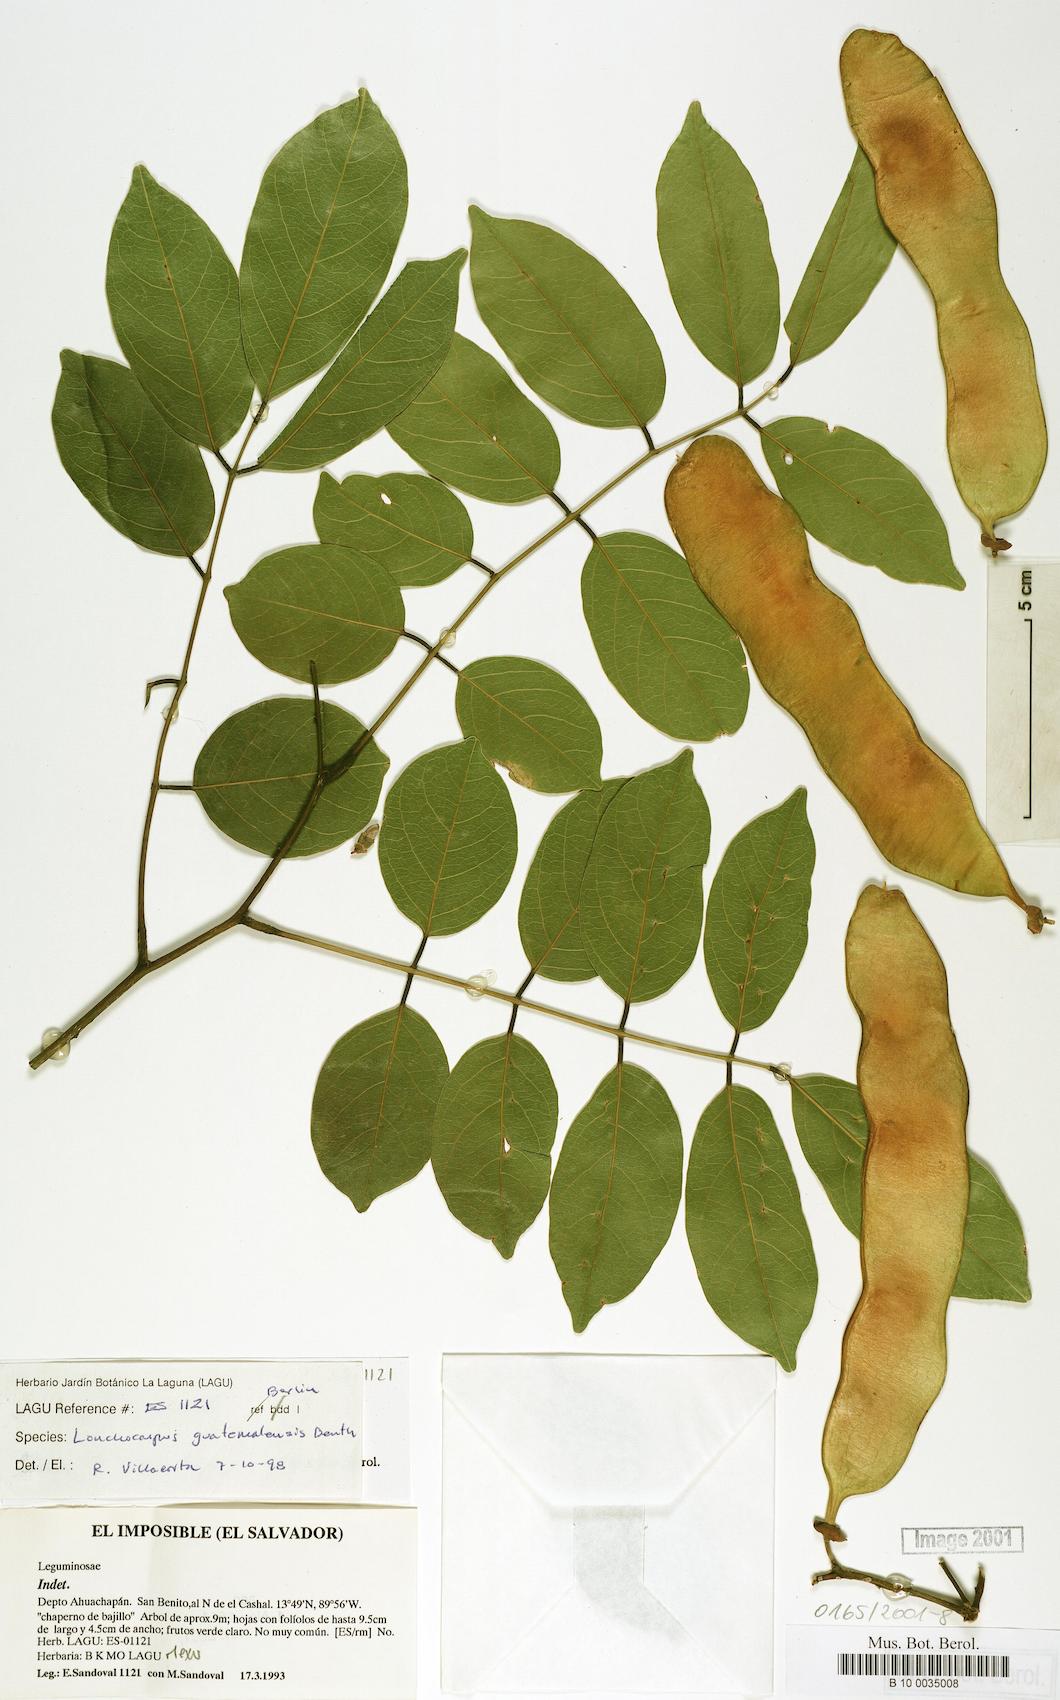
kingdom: Plantae
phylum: Tracheophyta
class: Magnoliopsida
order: Fabales
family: Fabaceae
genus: Lonchocarpus
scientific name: Lonchocarpus guatemalensis
